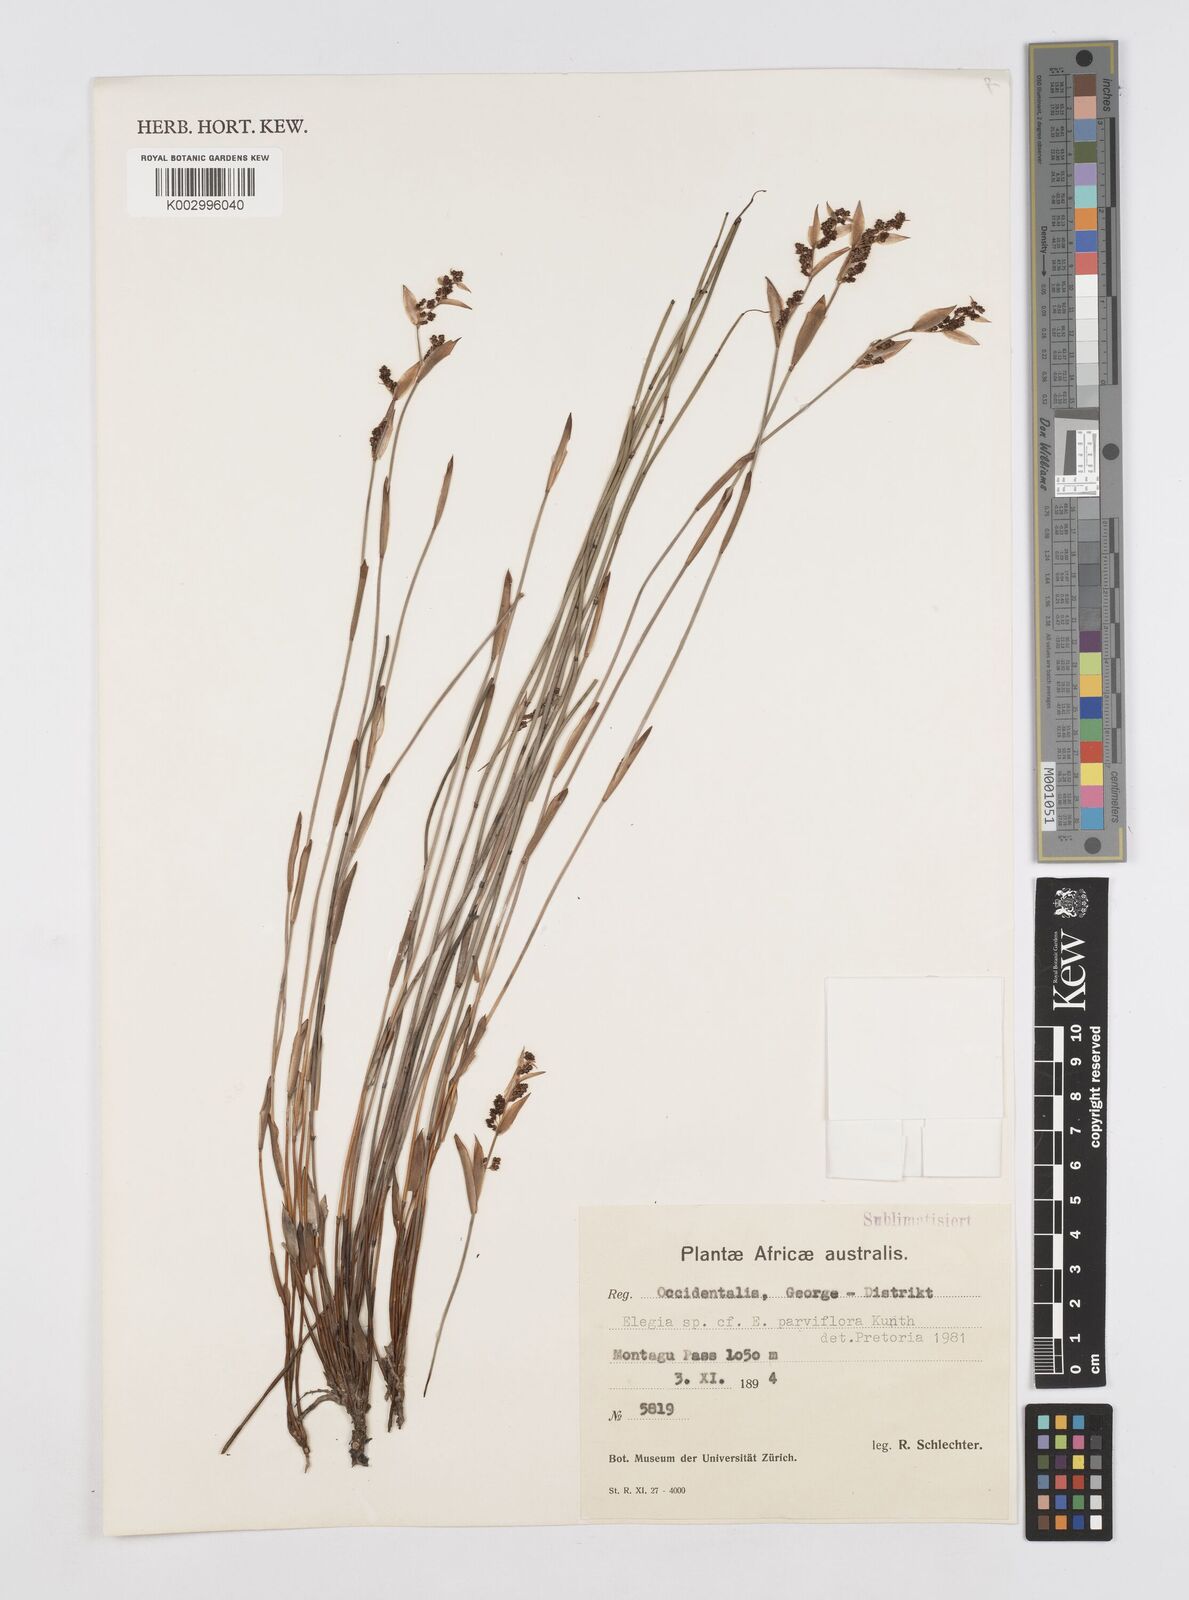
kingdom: Plantae
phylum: Tracheophyta
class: Liliopsida
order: Poales
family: Restionaceae
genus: Cannomois
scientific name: Cannomois parviflora
